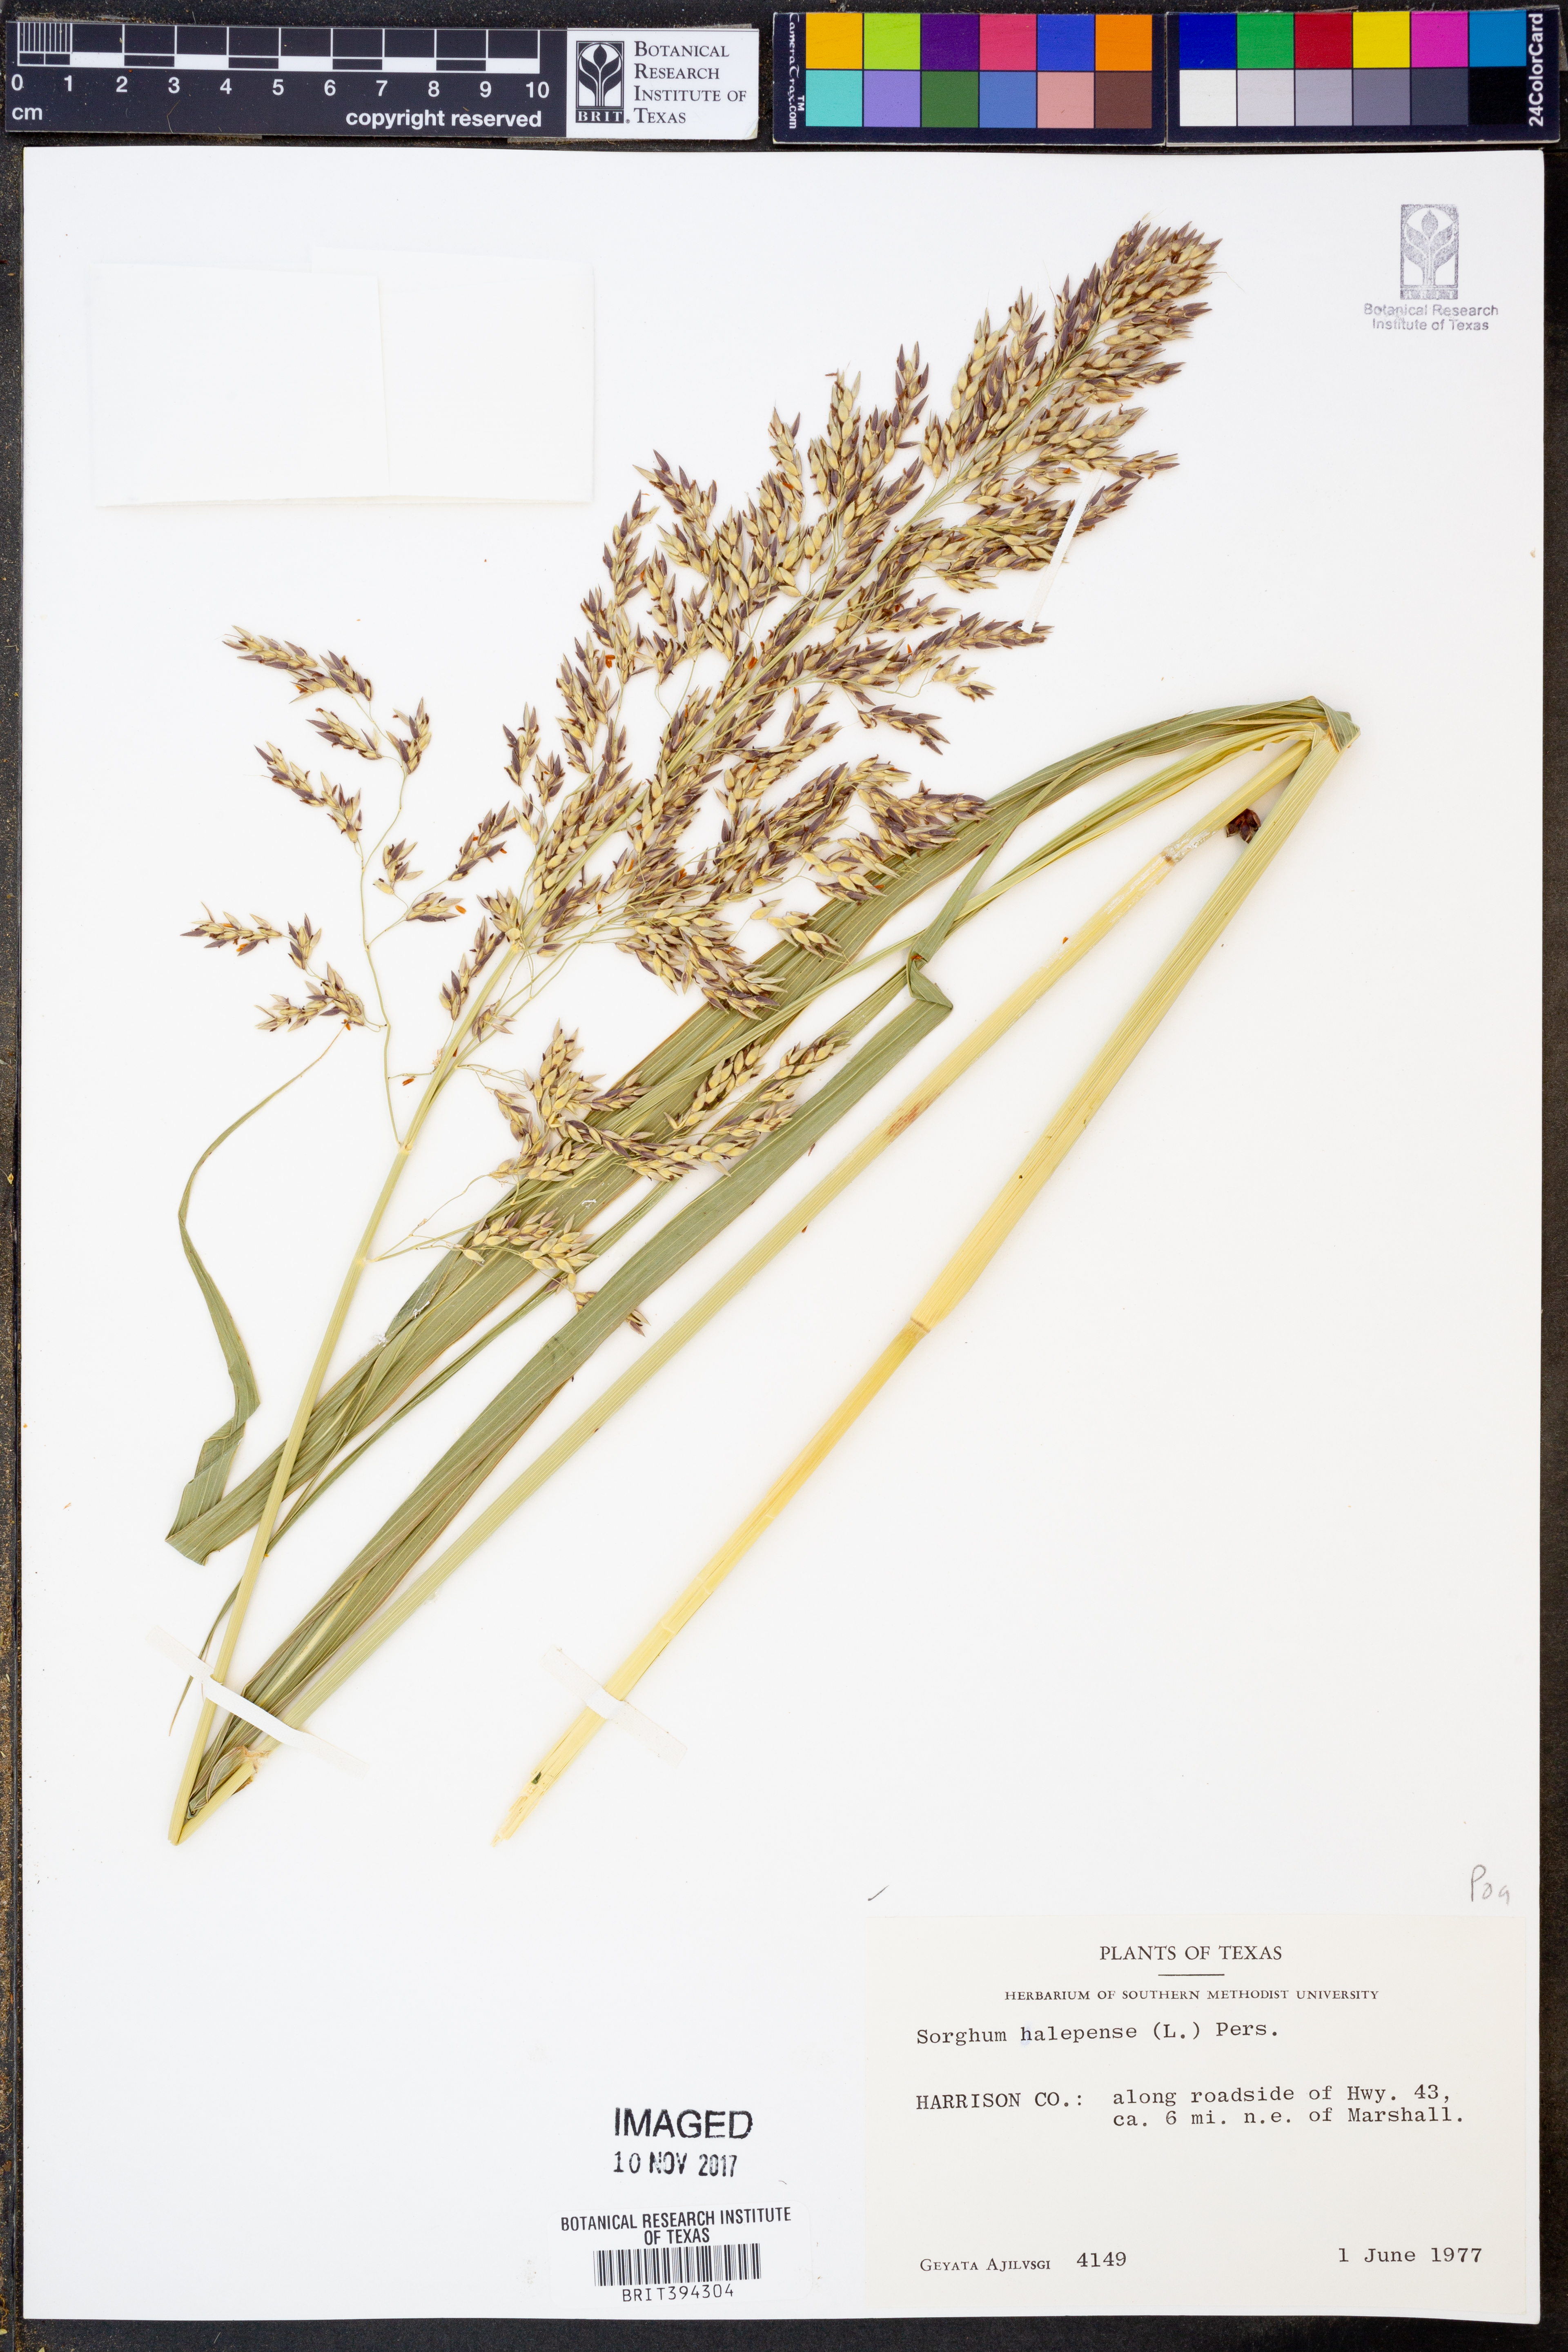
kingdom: Plantae
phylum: Tracheophyta
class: Liliopsida
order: Poales
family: Poaceae
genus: Sorghum
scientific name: Sorghum halepense
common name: Johnson-grass
